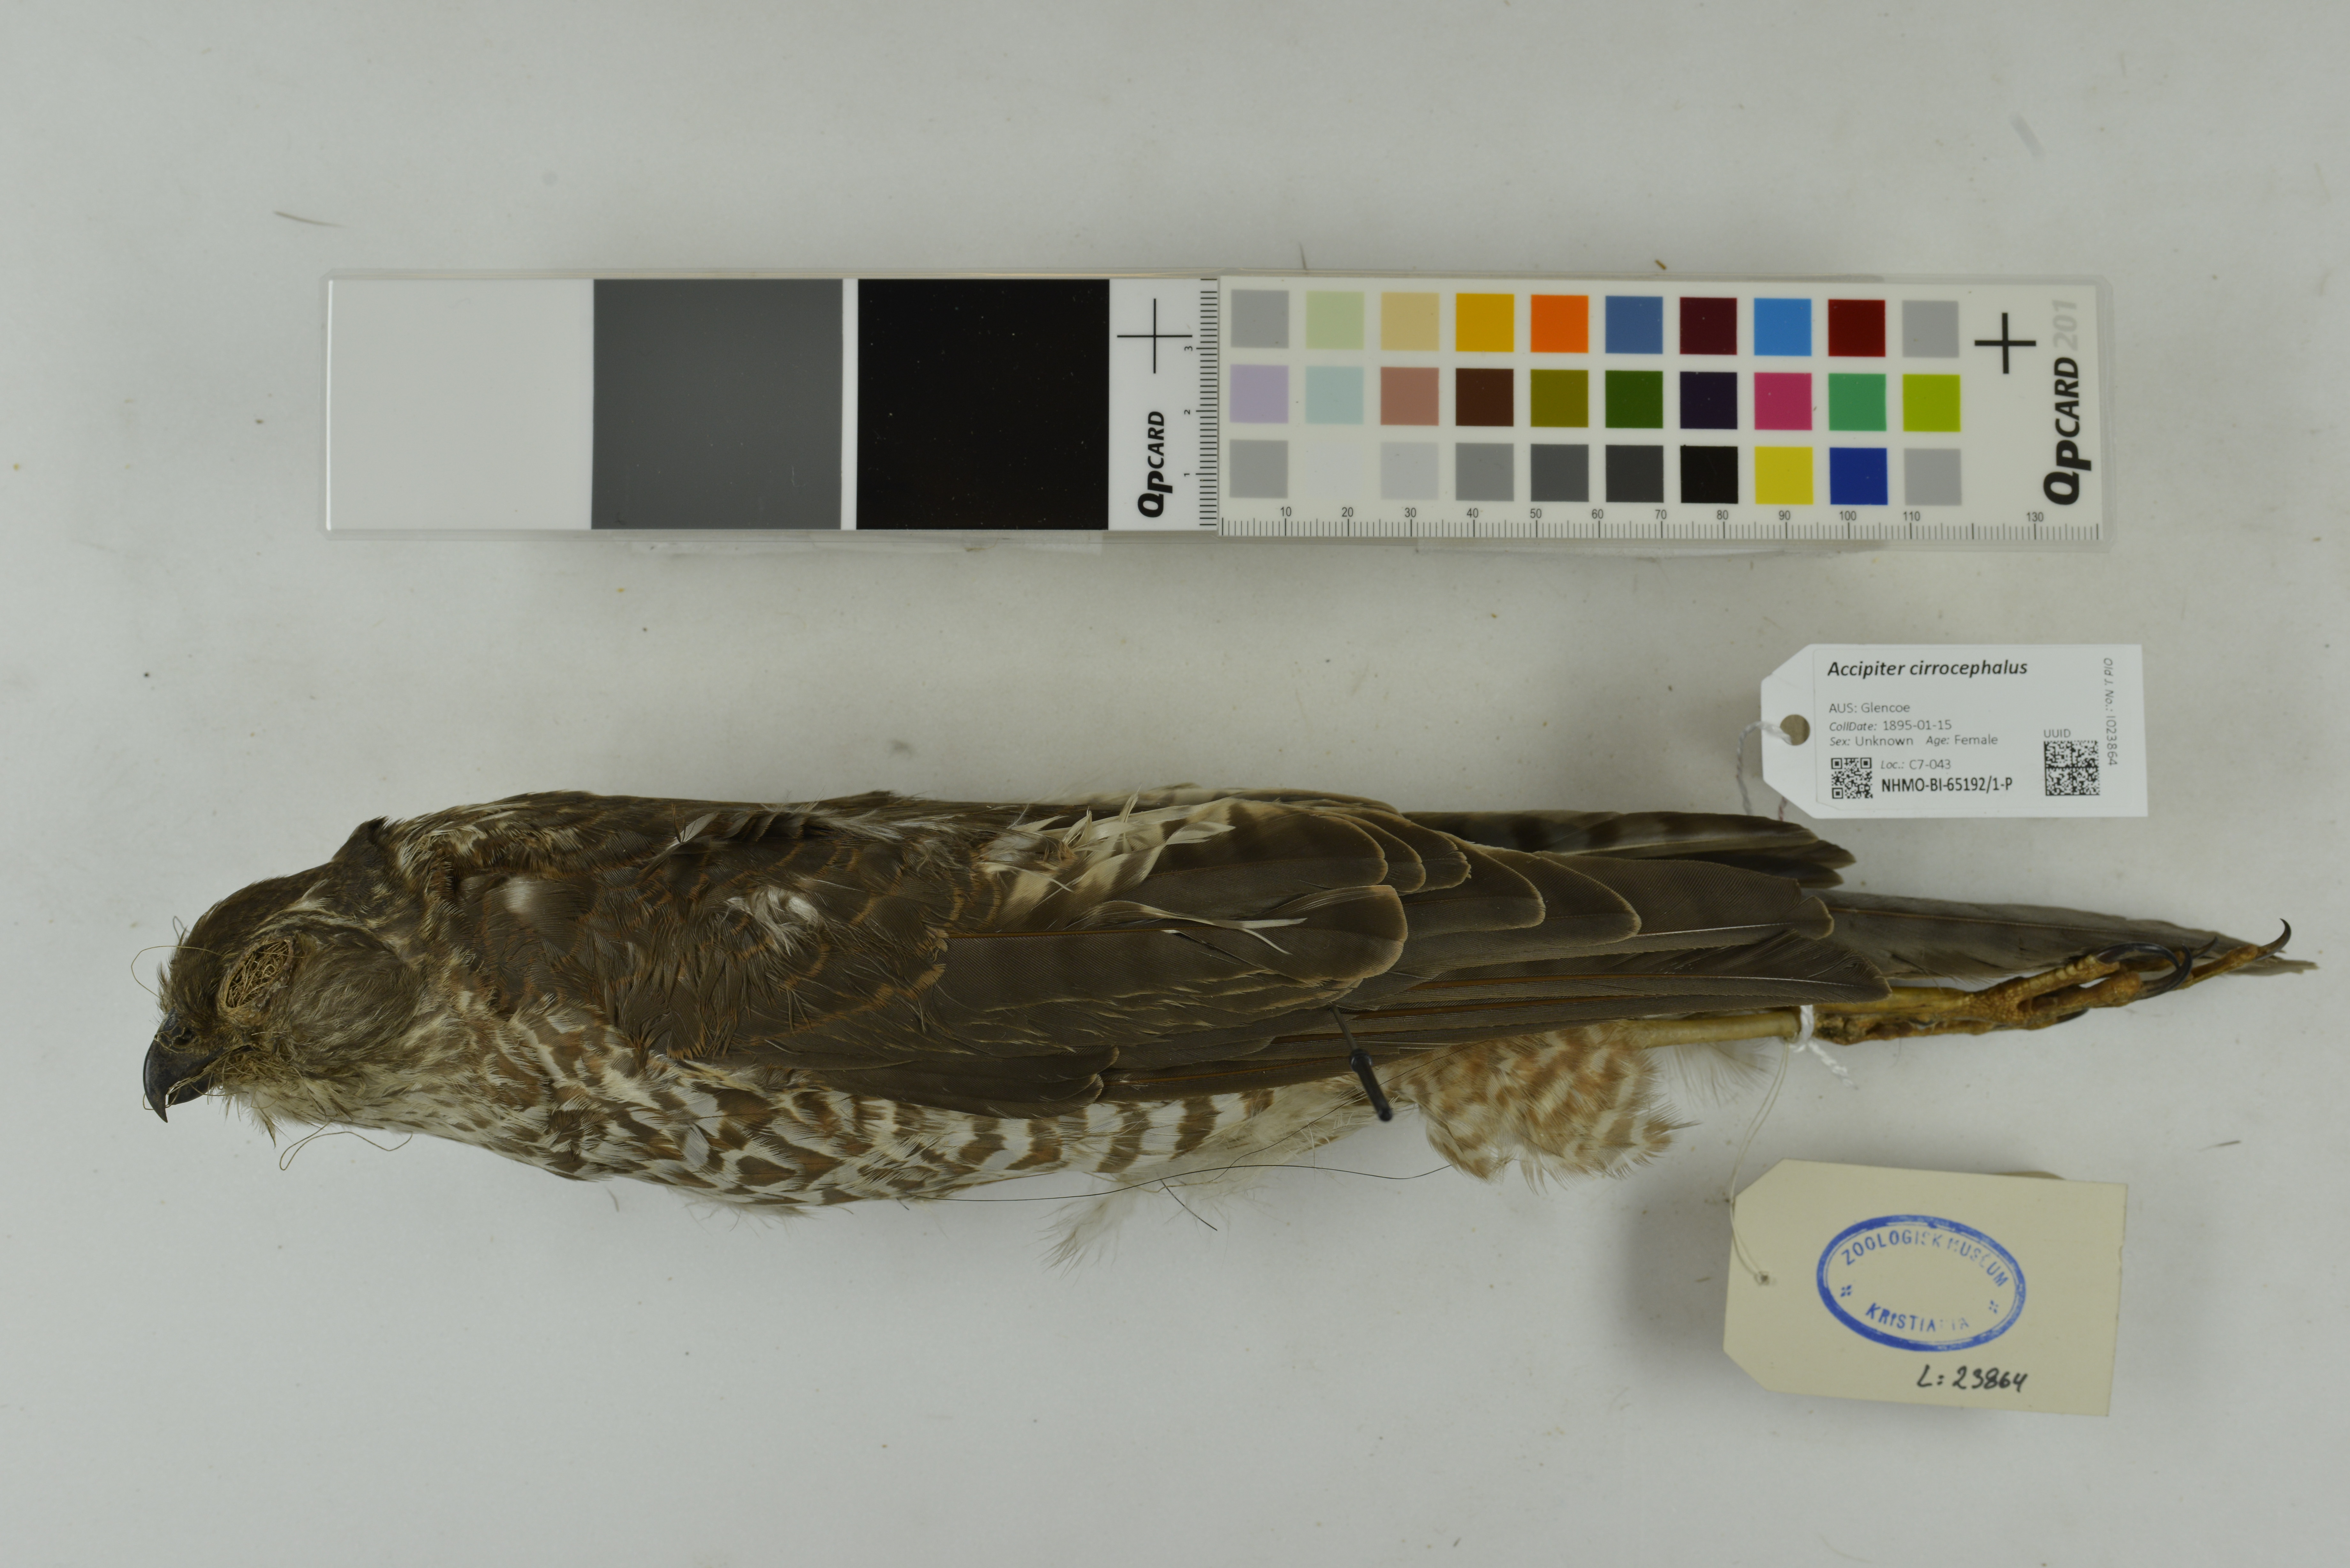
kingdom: Animalia
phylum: Chordata
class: Aves
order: Accipitriformes
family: Accipitridae
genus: Accipiter
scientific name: Accipiter cirrocephalus
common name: Collared sparrowhawk
